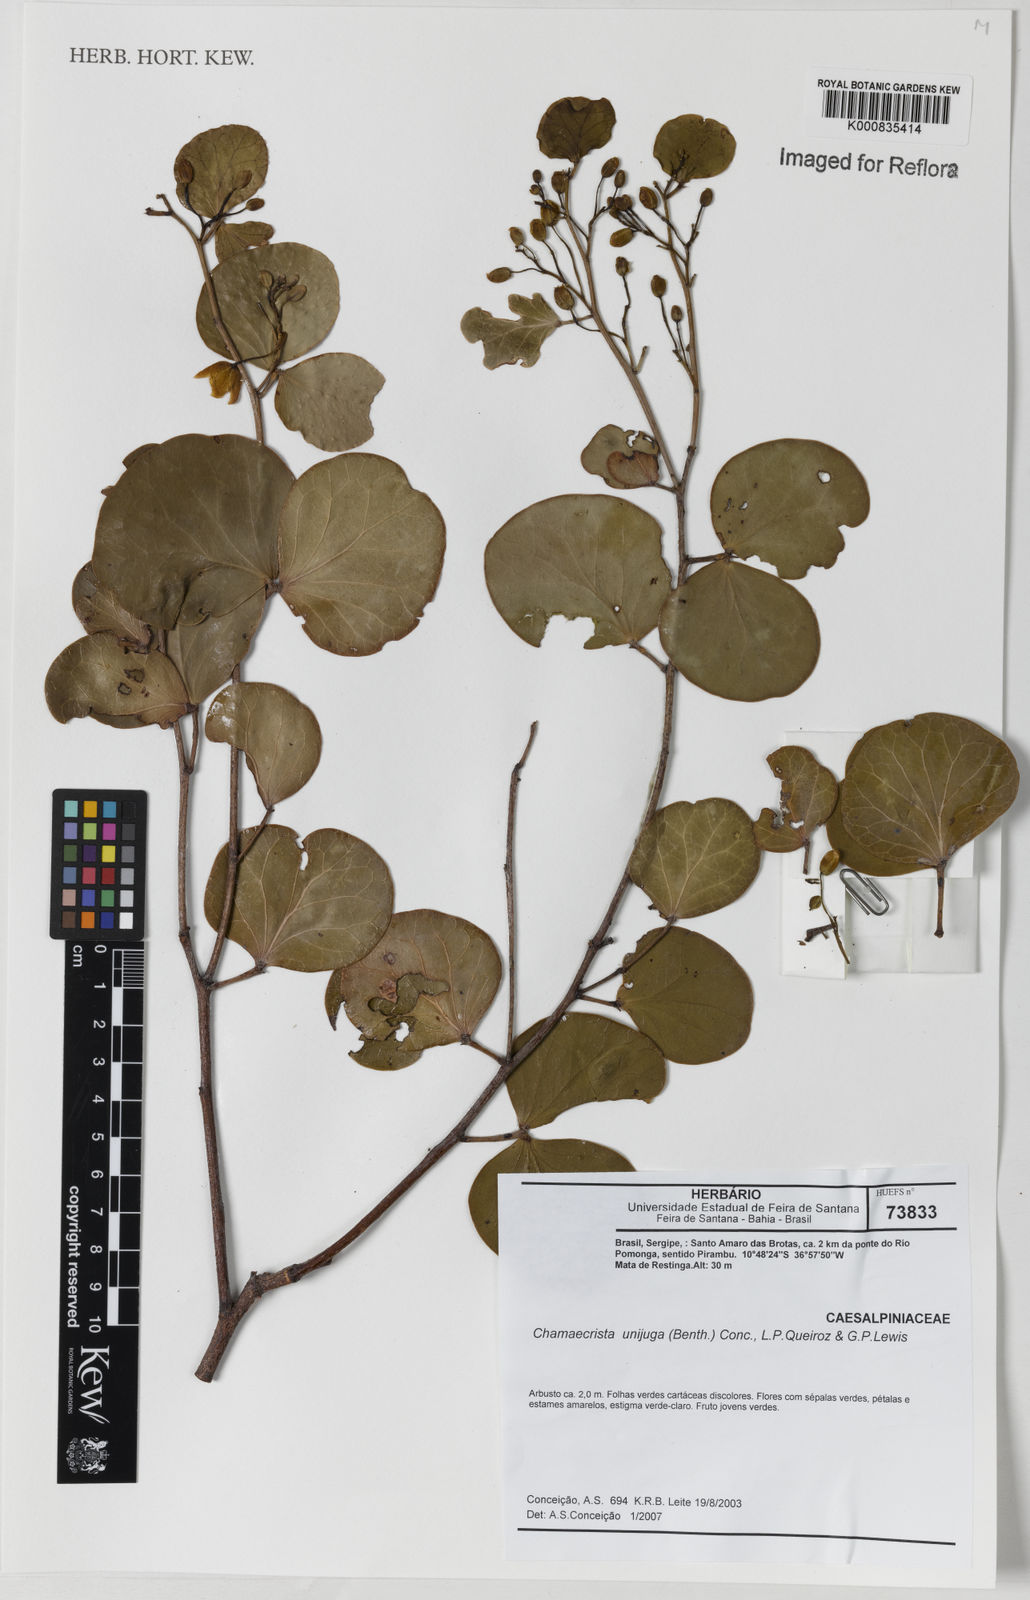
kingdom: Plantae
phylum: Tracheophyta
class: Magnoliopsida
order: Fabales
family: Fabaceae
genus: Chamaecrista
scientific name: Chamaecrista unijuga
